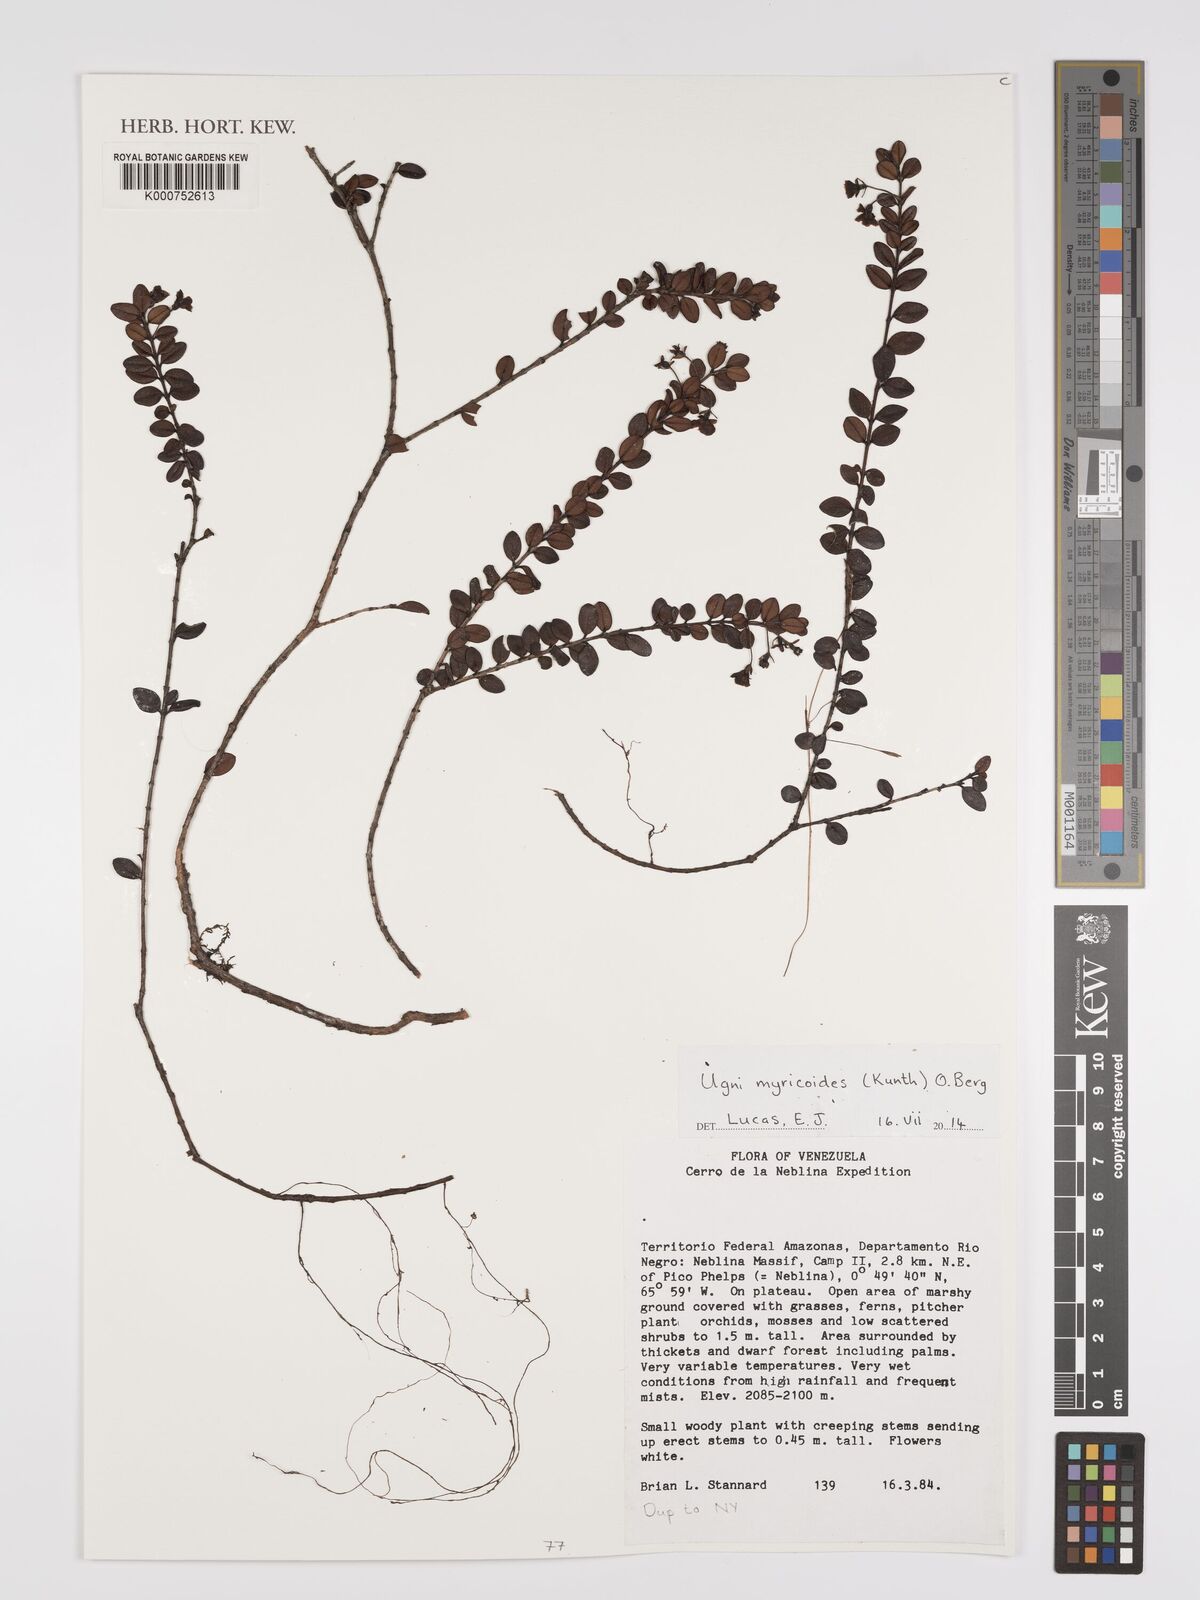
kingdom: Plantae
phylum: Tracheophyta
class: Magnoliopsida
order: Myrtales
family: Myrtaceae
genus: Ugni
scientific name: Ugni myricoides
